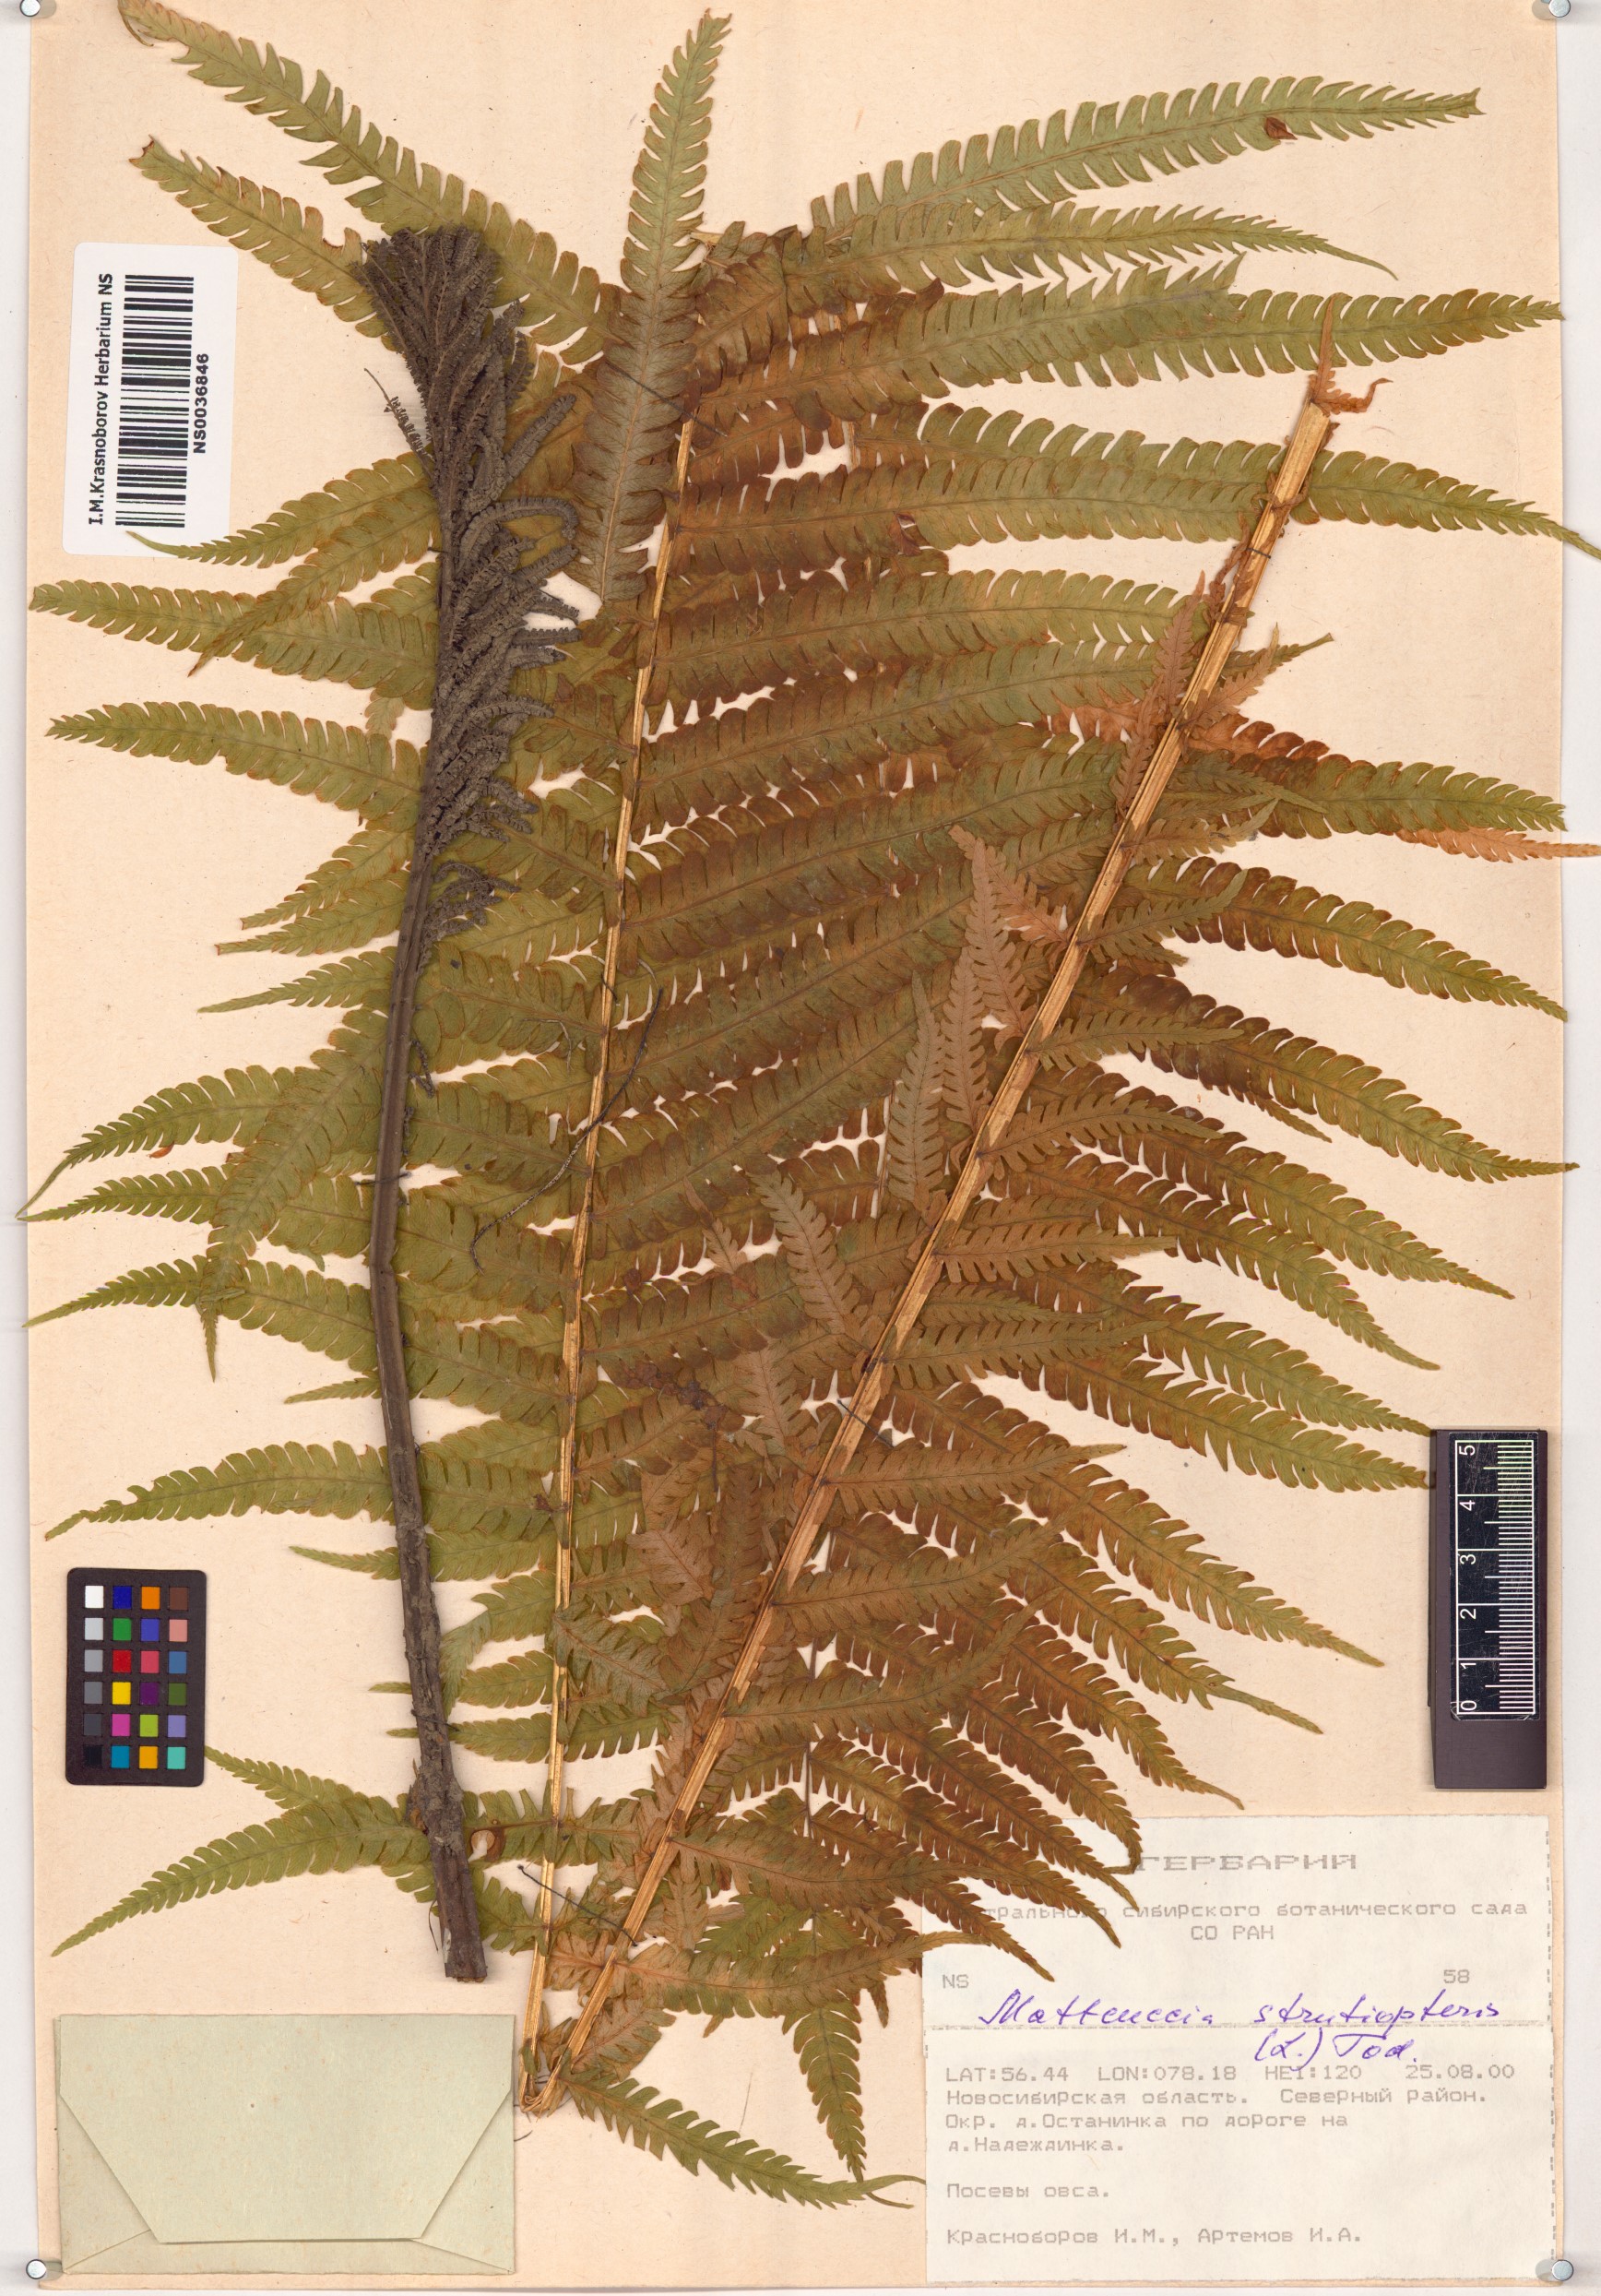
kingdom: Plantae
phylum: Tracheophyta
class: Polypodiopsida
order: Polypodiales
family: Onocleaceae
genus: Matteuccia
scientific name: Matteuccia struthiopteris
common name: Ostrich fern
